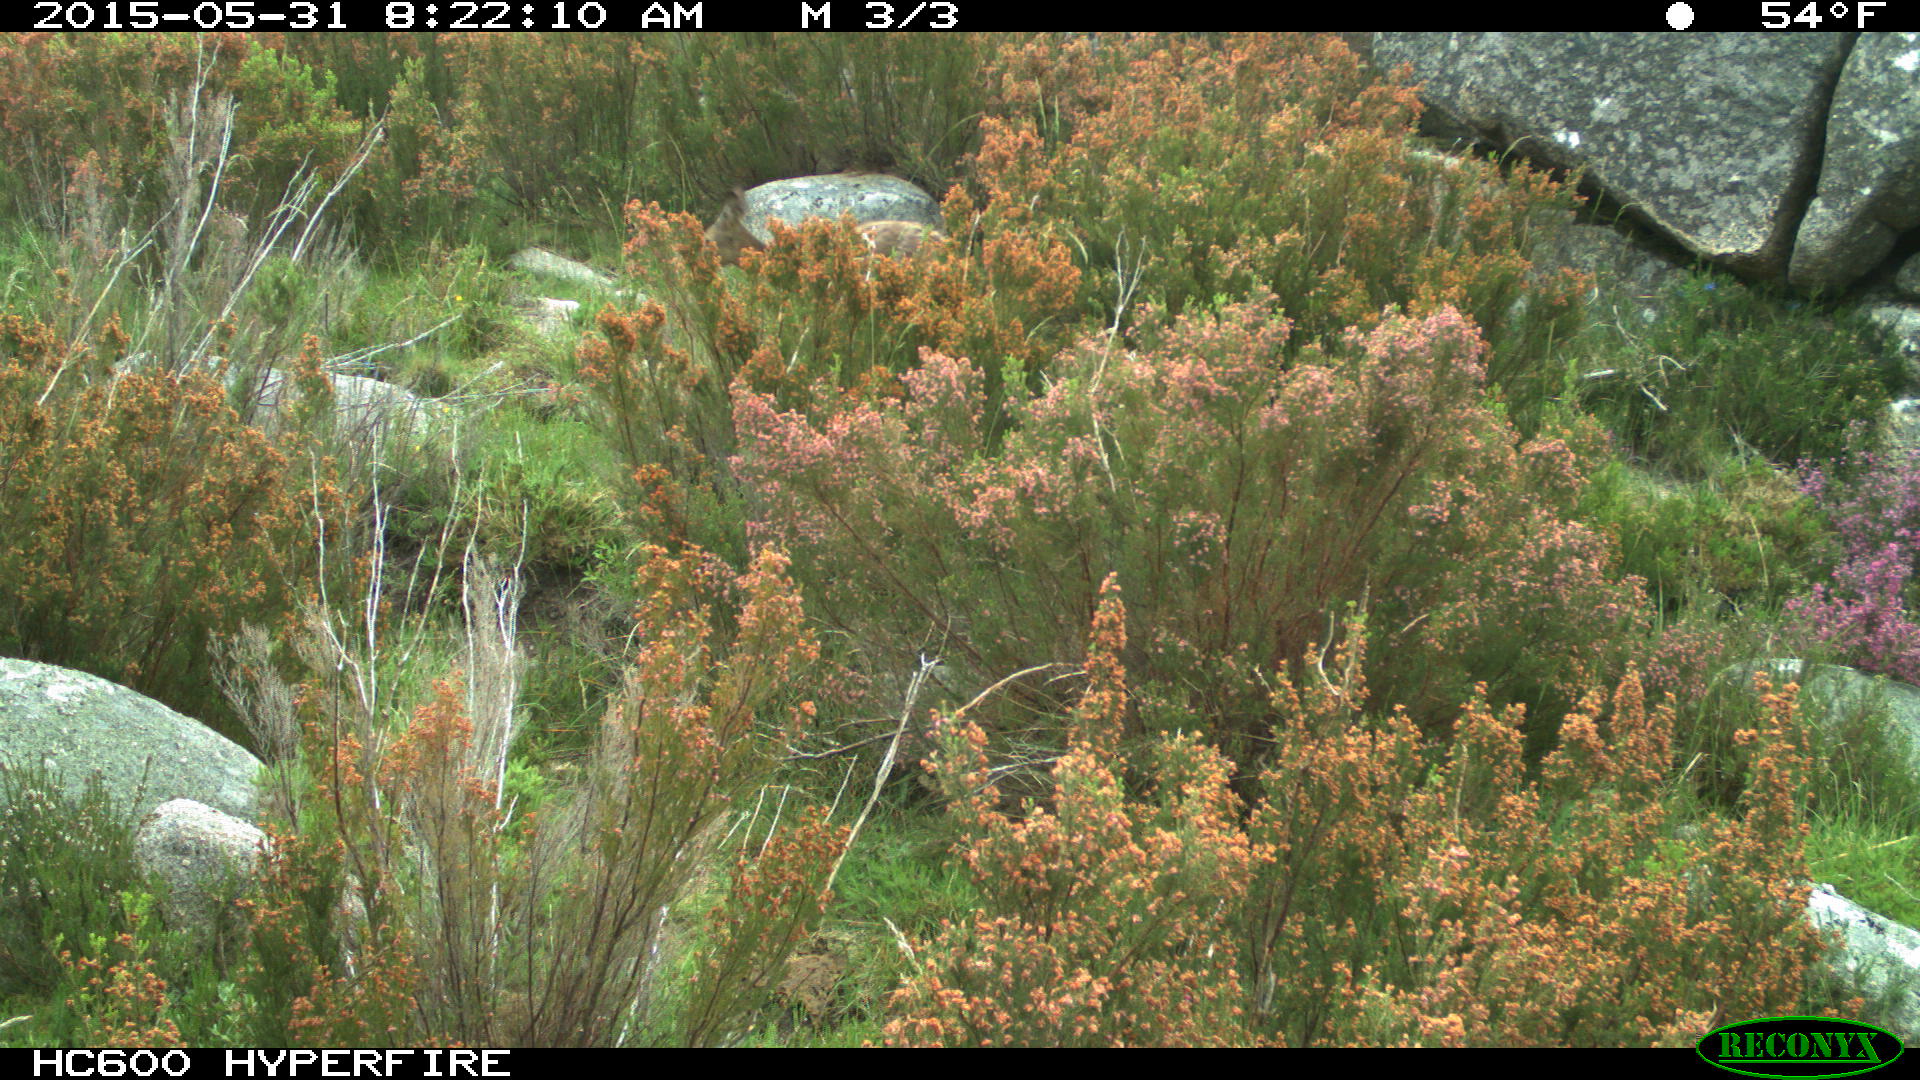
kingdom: Animalia
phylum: Chordata
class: Mammalia
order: Artiodactyla
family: Cervidae
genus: Capreolus
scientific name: Capreolus capreolus
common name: Western roe deer
